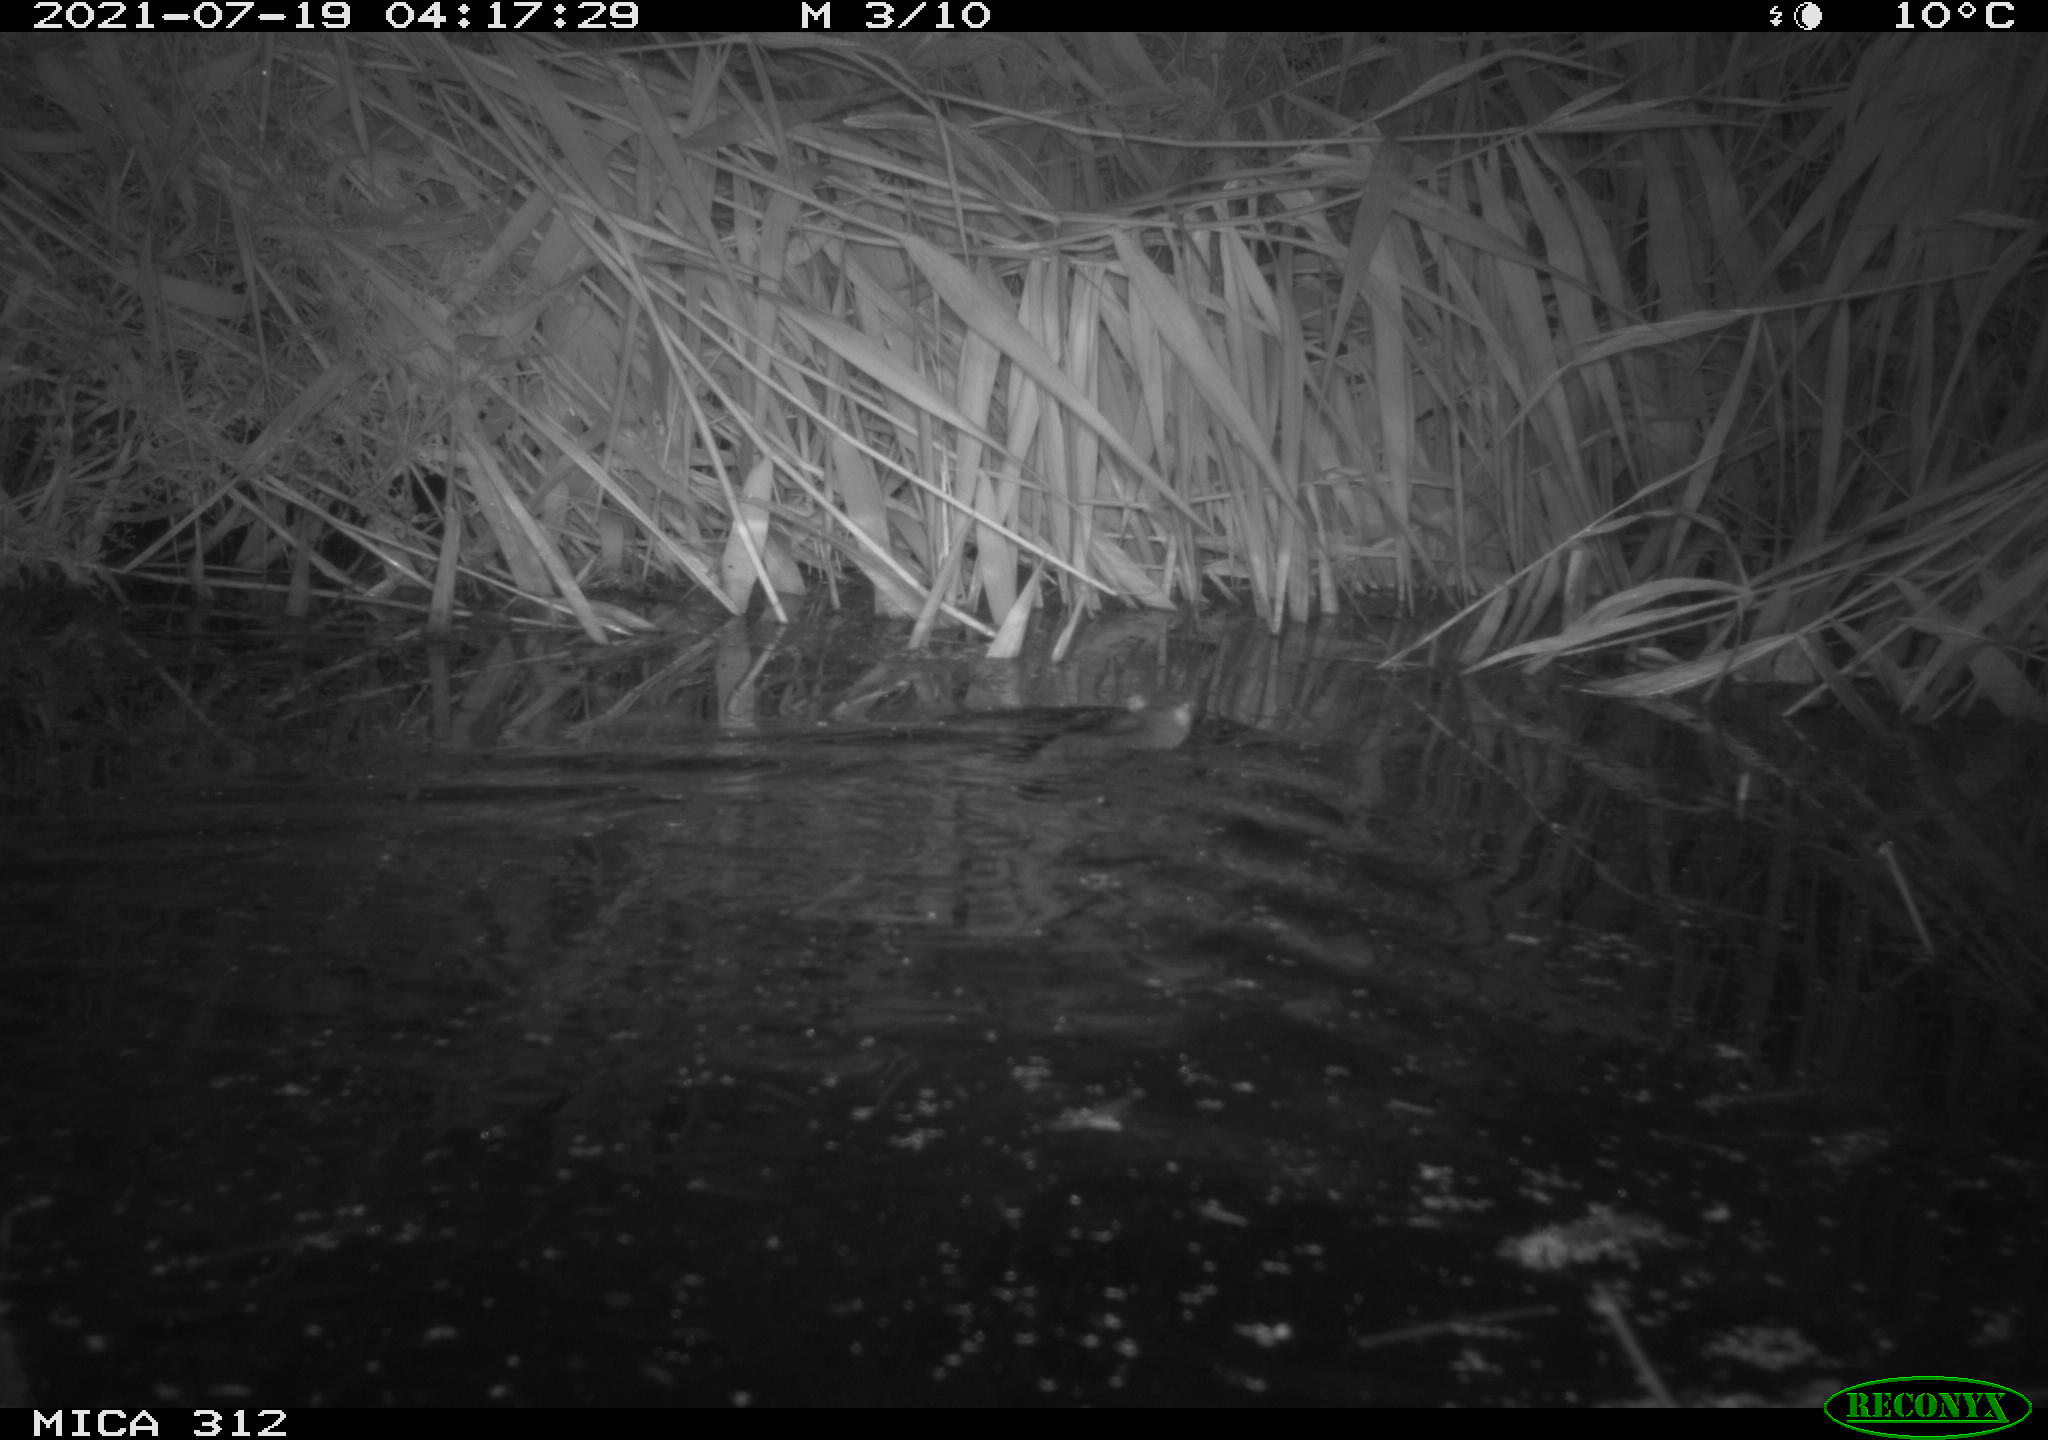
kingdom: Animalia
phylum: Chordata
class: Mammalia
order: Rodentia
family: Muridae
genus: Rattus
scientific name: Rattus norvegicus
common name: Brown rat
